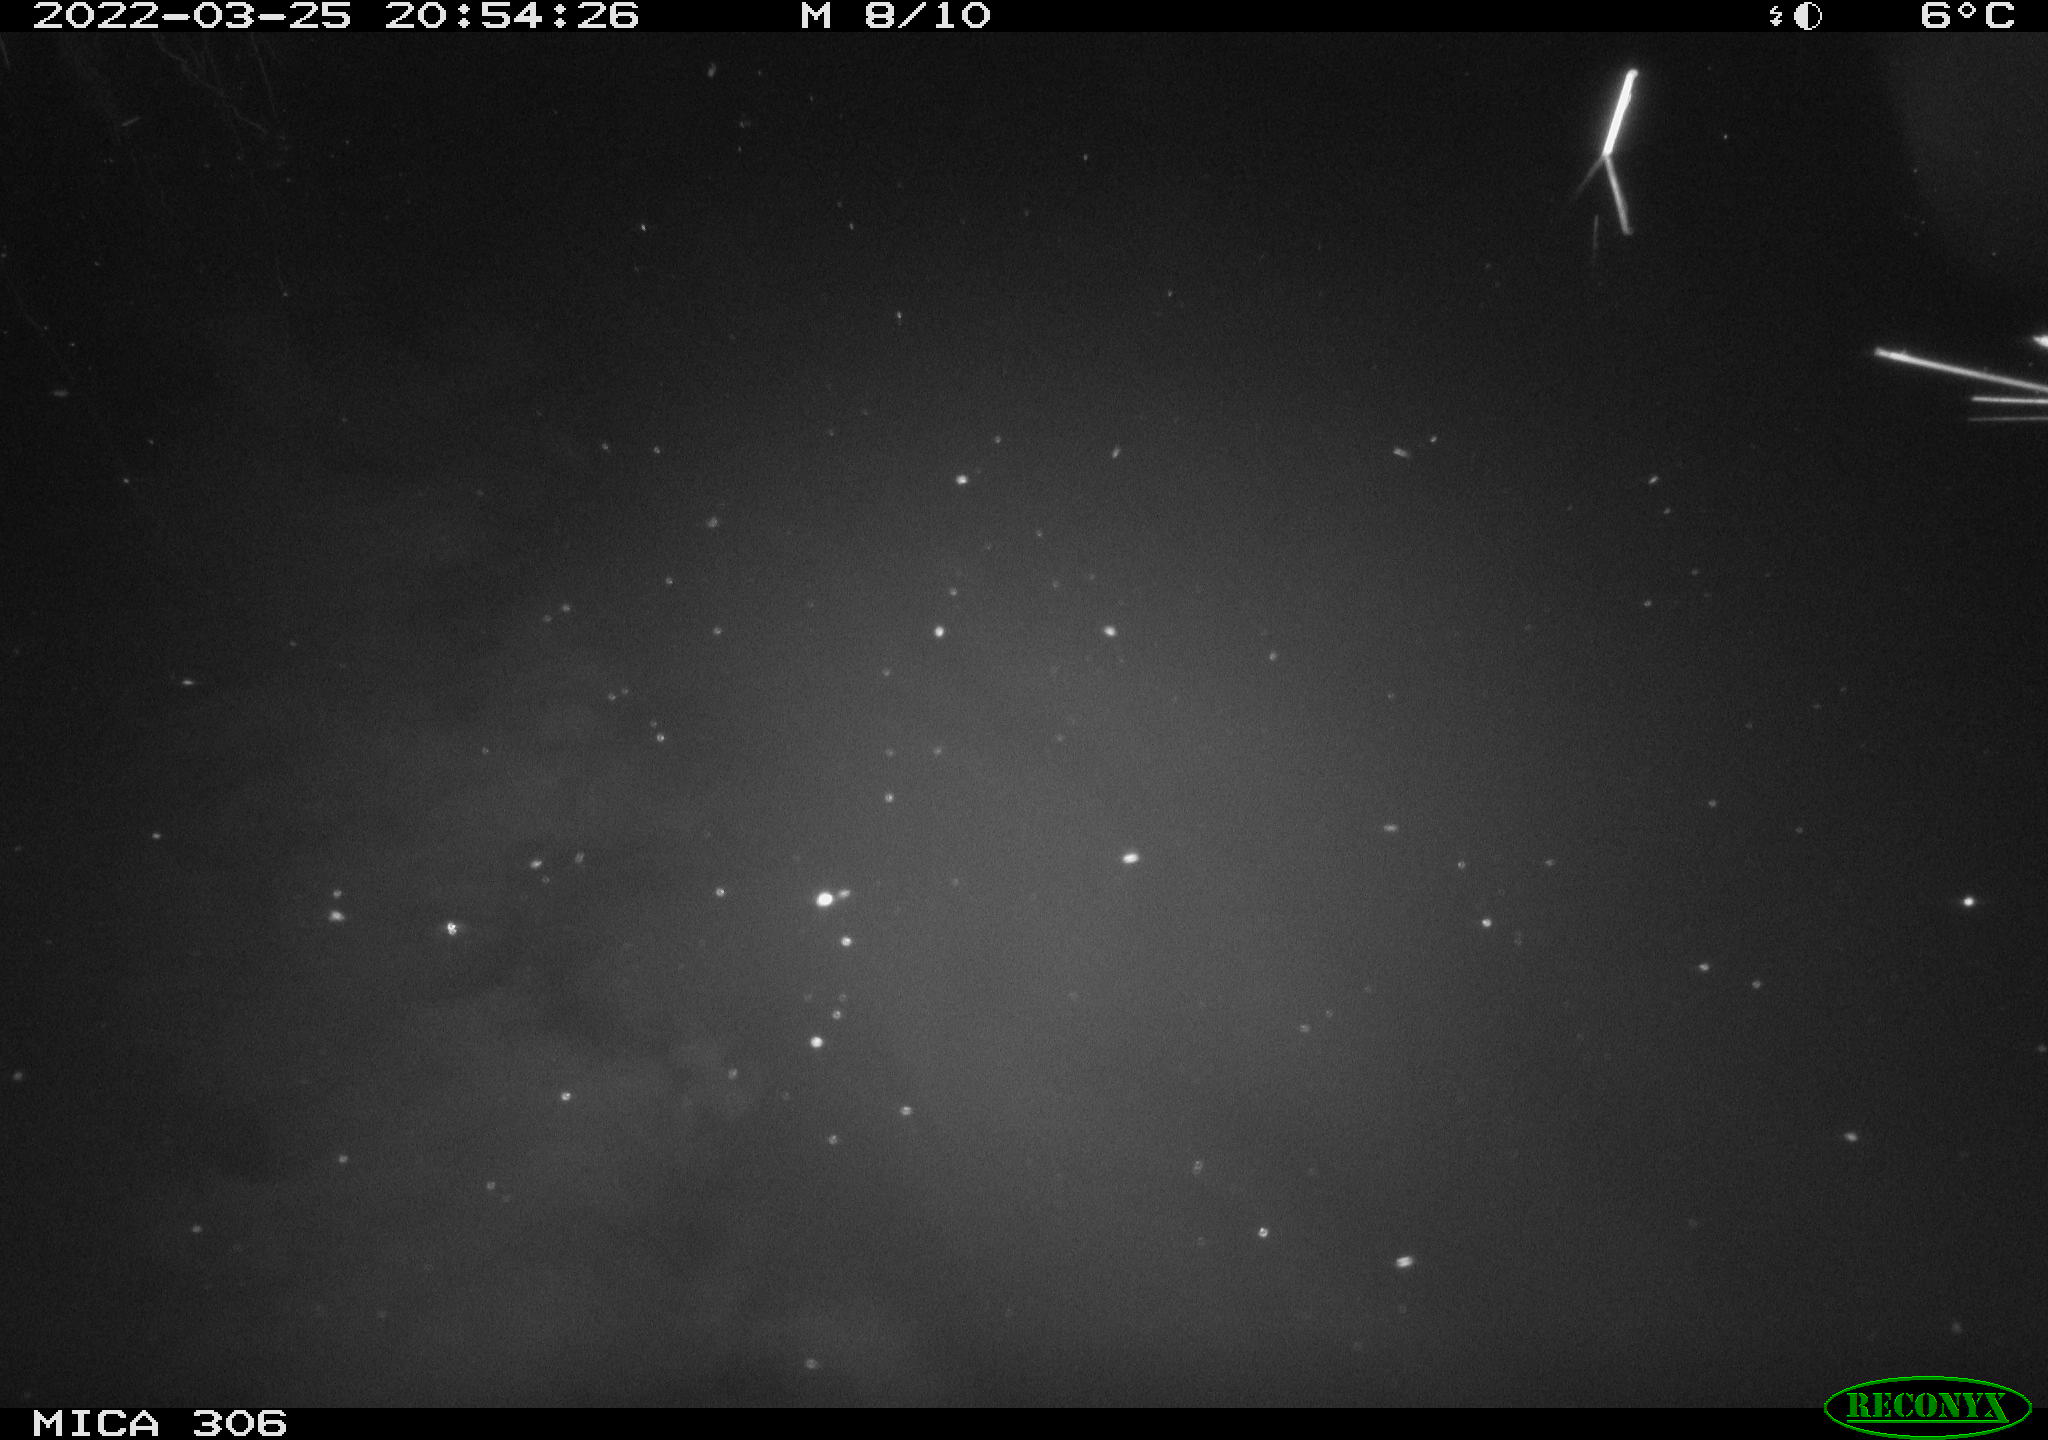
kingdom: Animalia
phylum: Chordata
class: Mammalia
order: Rodentia
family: Muridae
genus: Rattus
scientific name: Rattus norvegicus
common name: Brown rat
